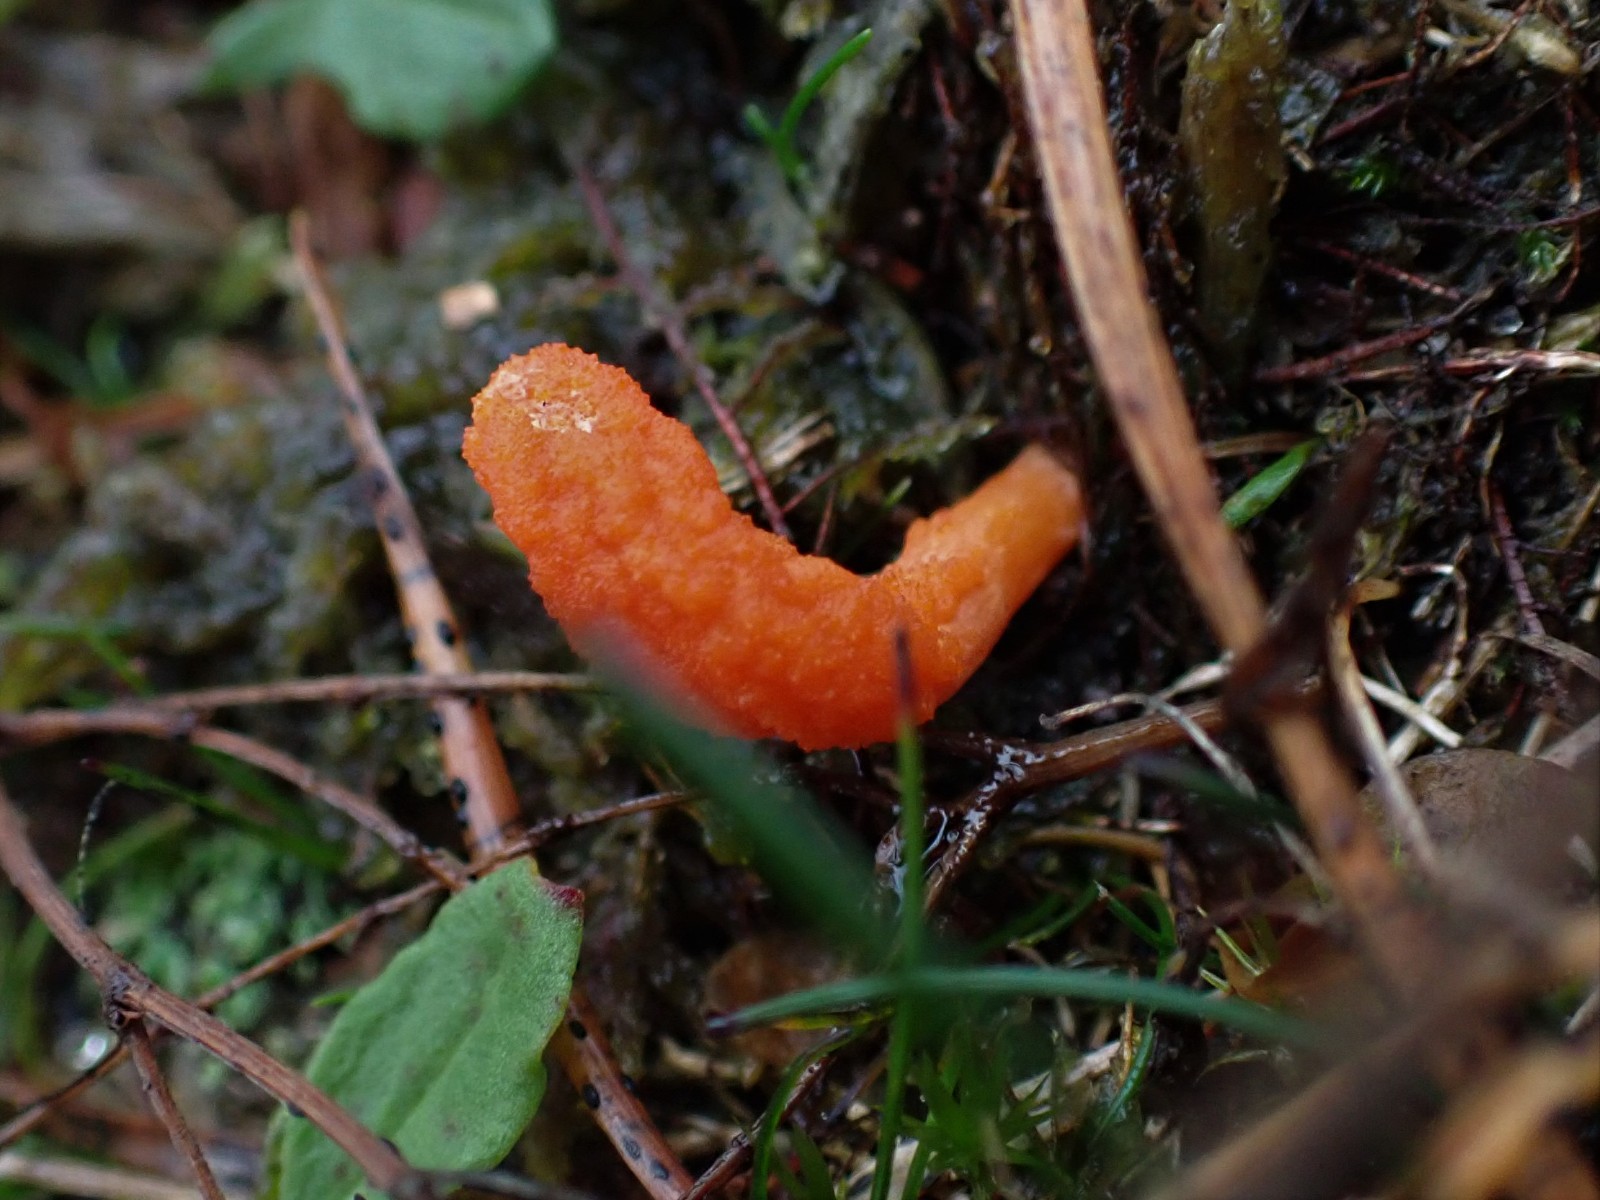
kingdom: Fungi
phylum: Ascomycota
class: Sordariomycetes
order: Hypocreales
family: Cordycipitaceae
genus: Cordyceps
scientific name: Cordyceps militaris
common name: puppe-snyltekølle
